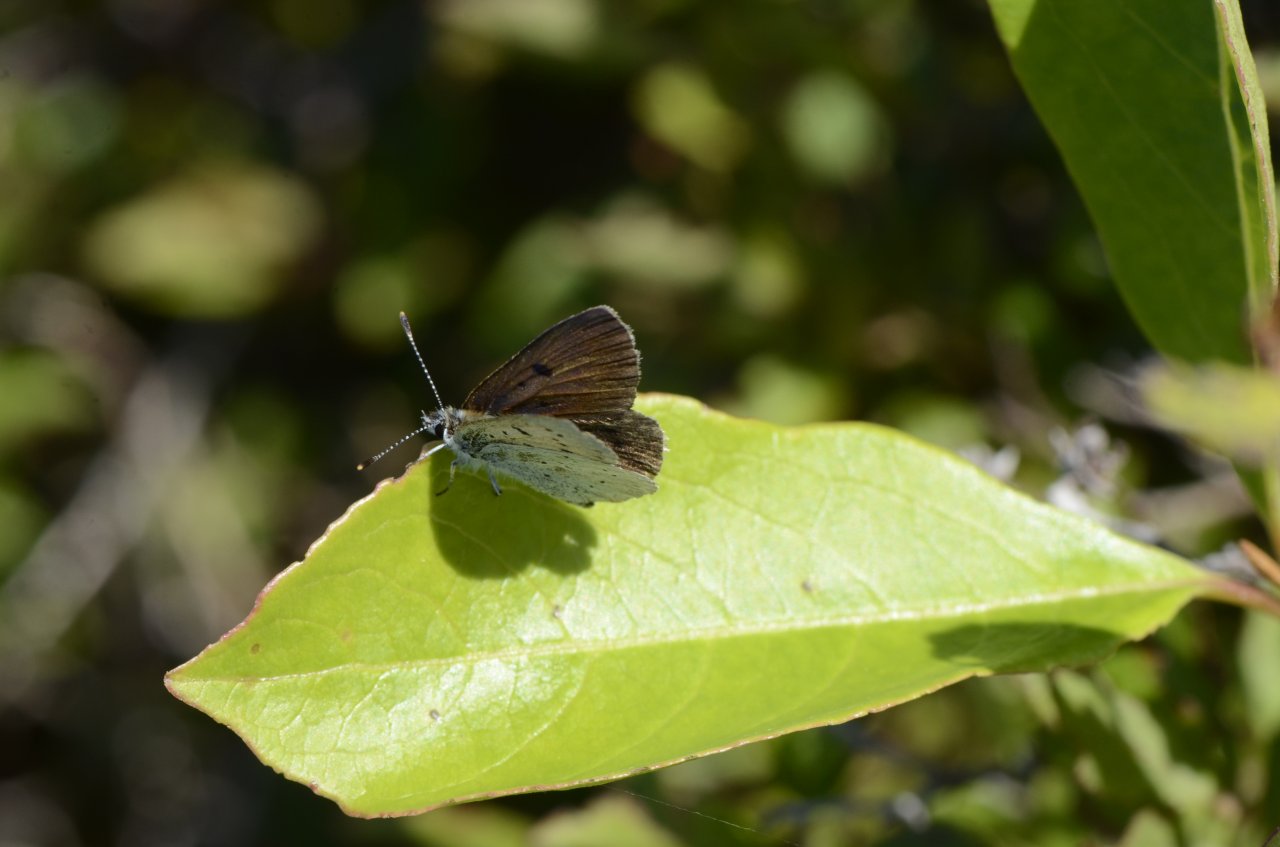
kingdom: Animalia
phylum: Arthropoda
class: Insecta
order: Lepidoptera
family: Sesiidae
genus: Sesia
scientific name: Sesia Lycaena epixanthe
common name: Bog Copper
